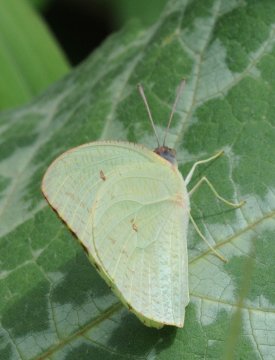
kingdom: Animalia
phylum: Arthropoda
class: Insecta
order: Lepidoptera
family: Pieridae
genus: Catopsilia
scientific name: Catopsilia florella
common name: African Migrant
